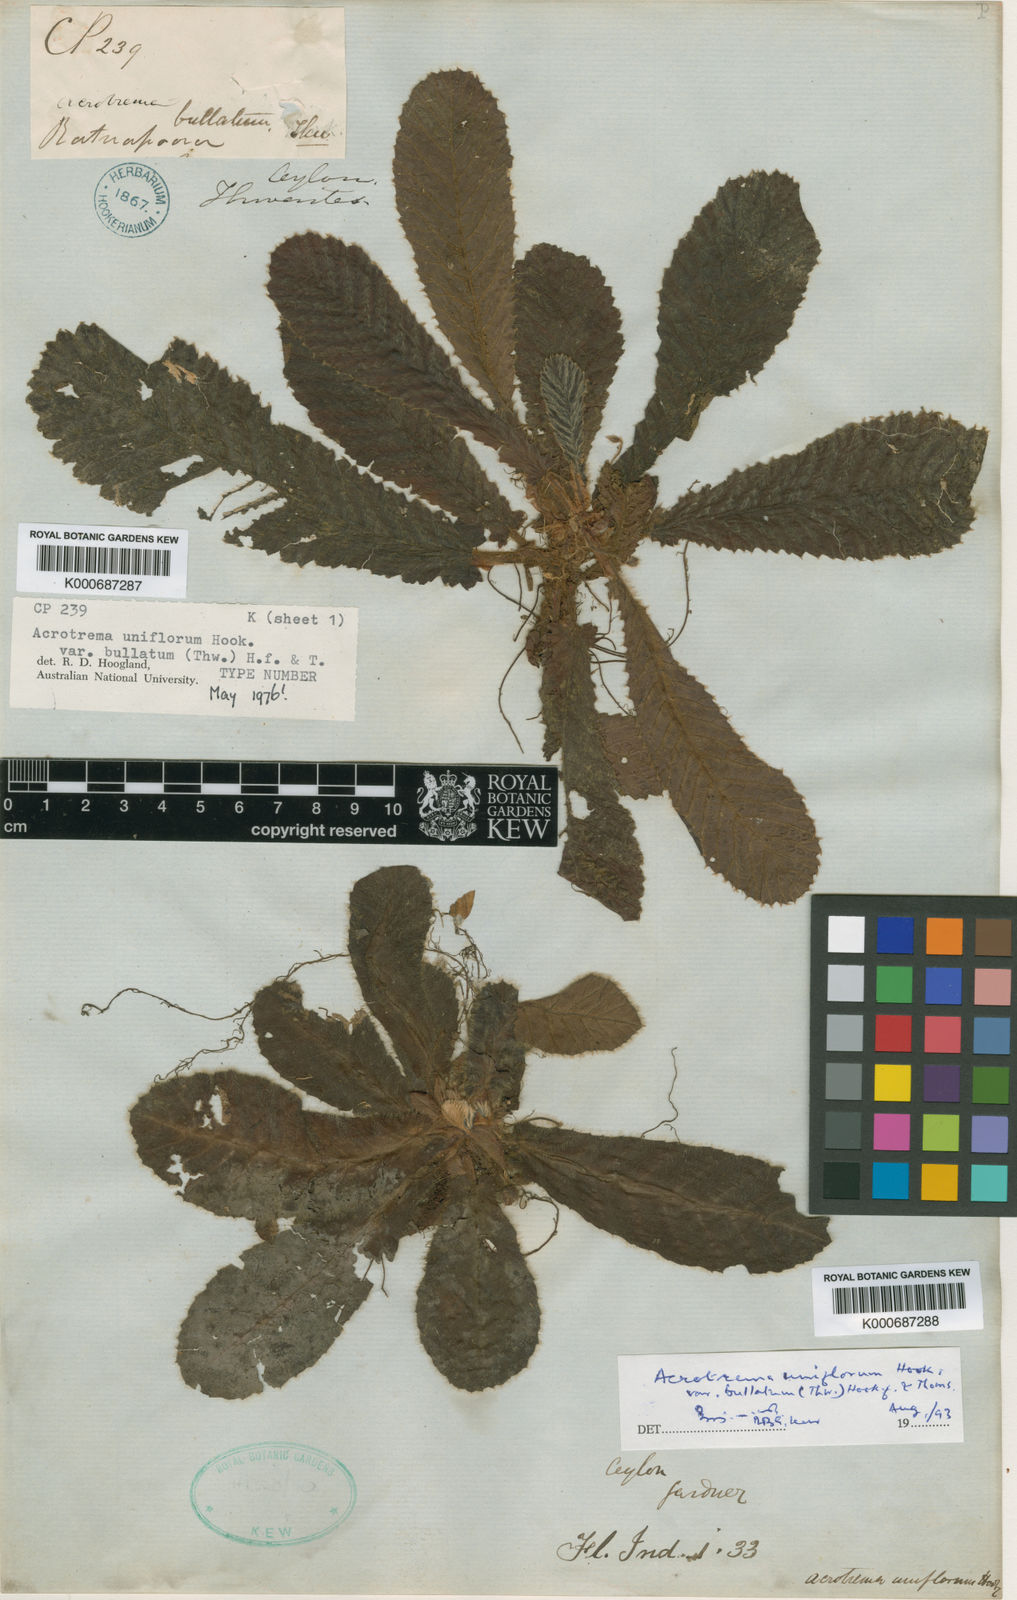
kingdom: Plantae
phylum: Tracheophyta
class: Magnoliopsida
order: Dilleniales
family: Dilleniaceae
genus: Acrotrema
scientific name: Acrotrema uniflorum
